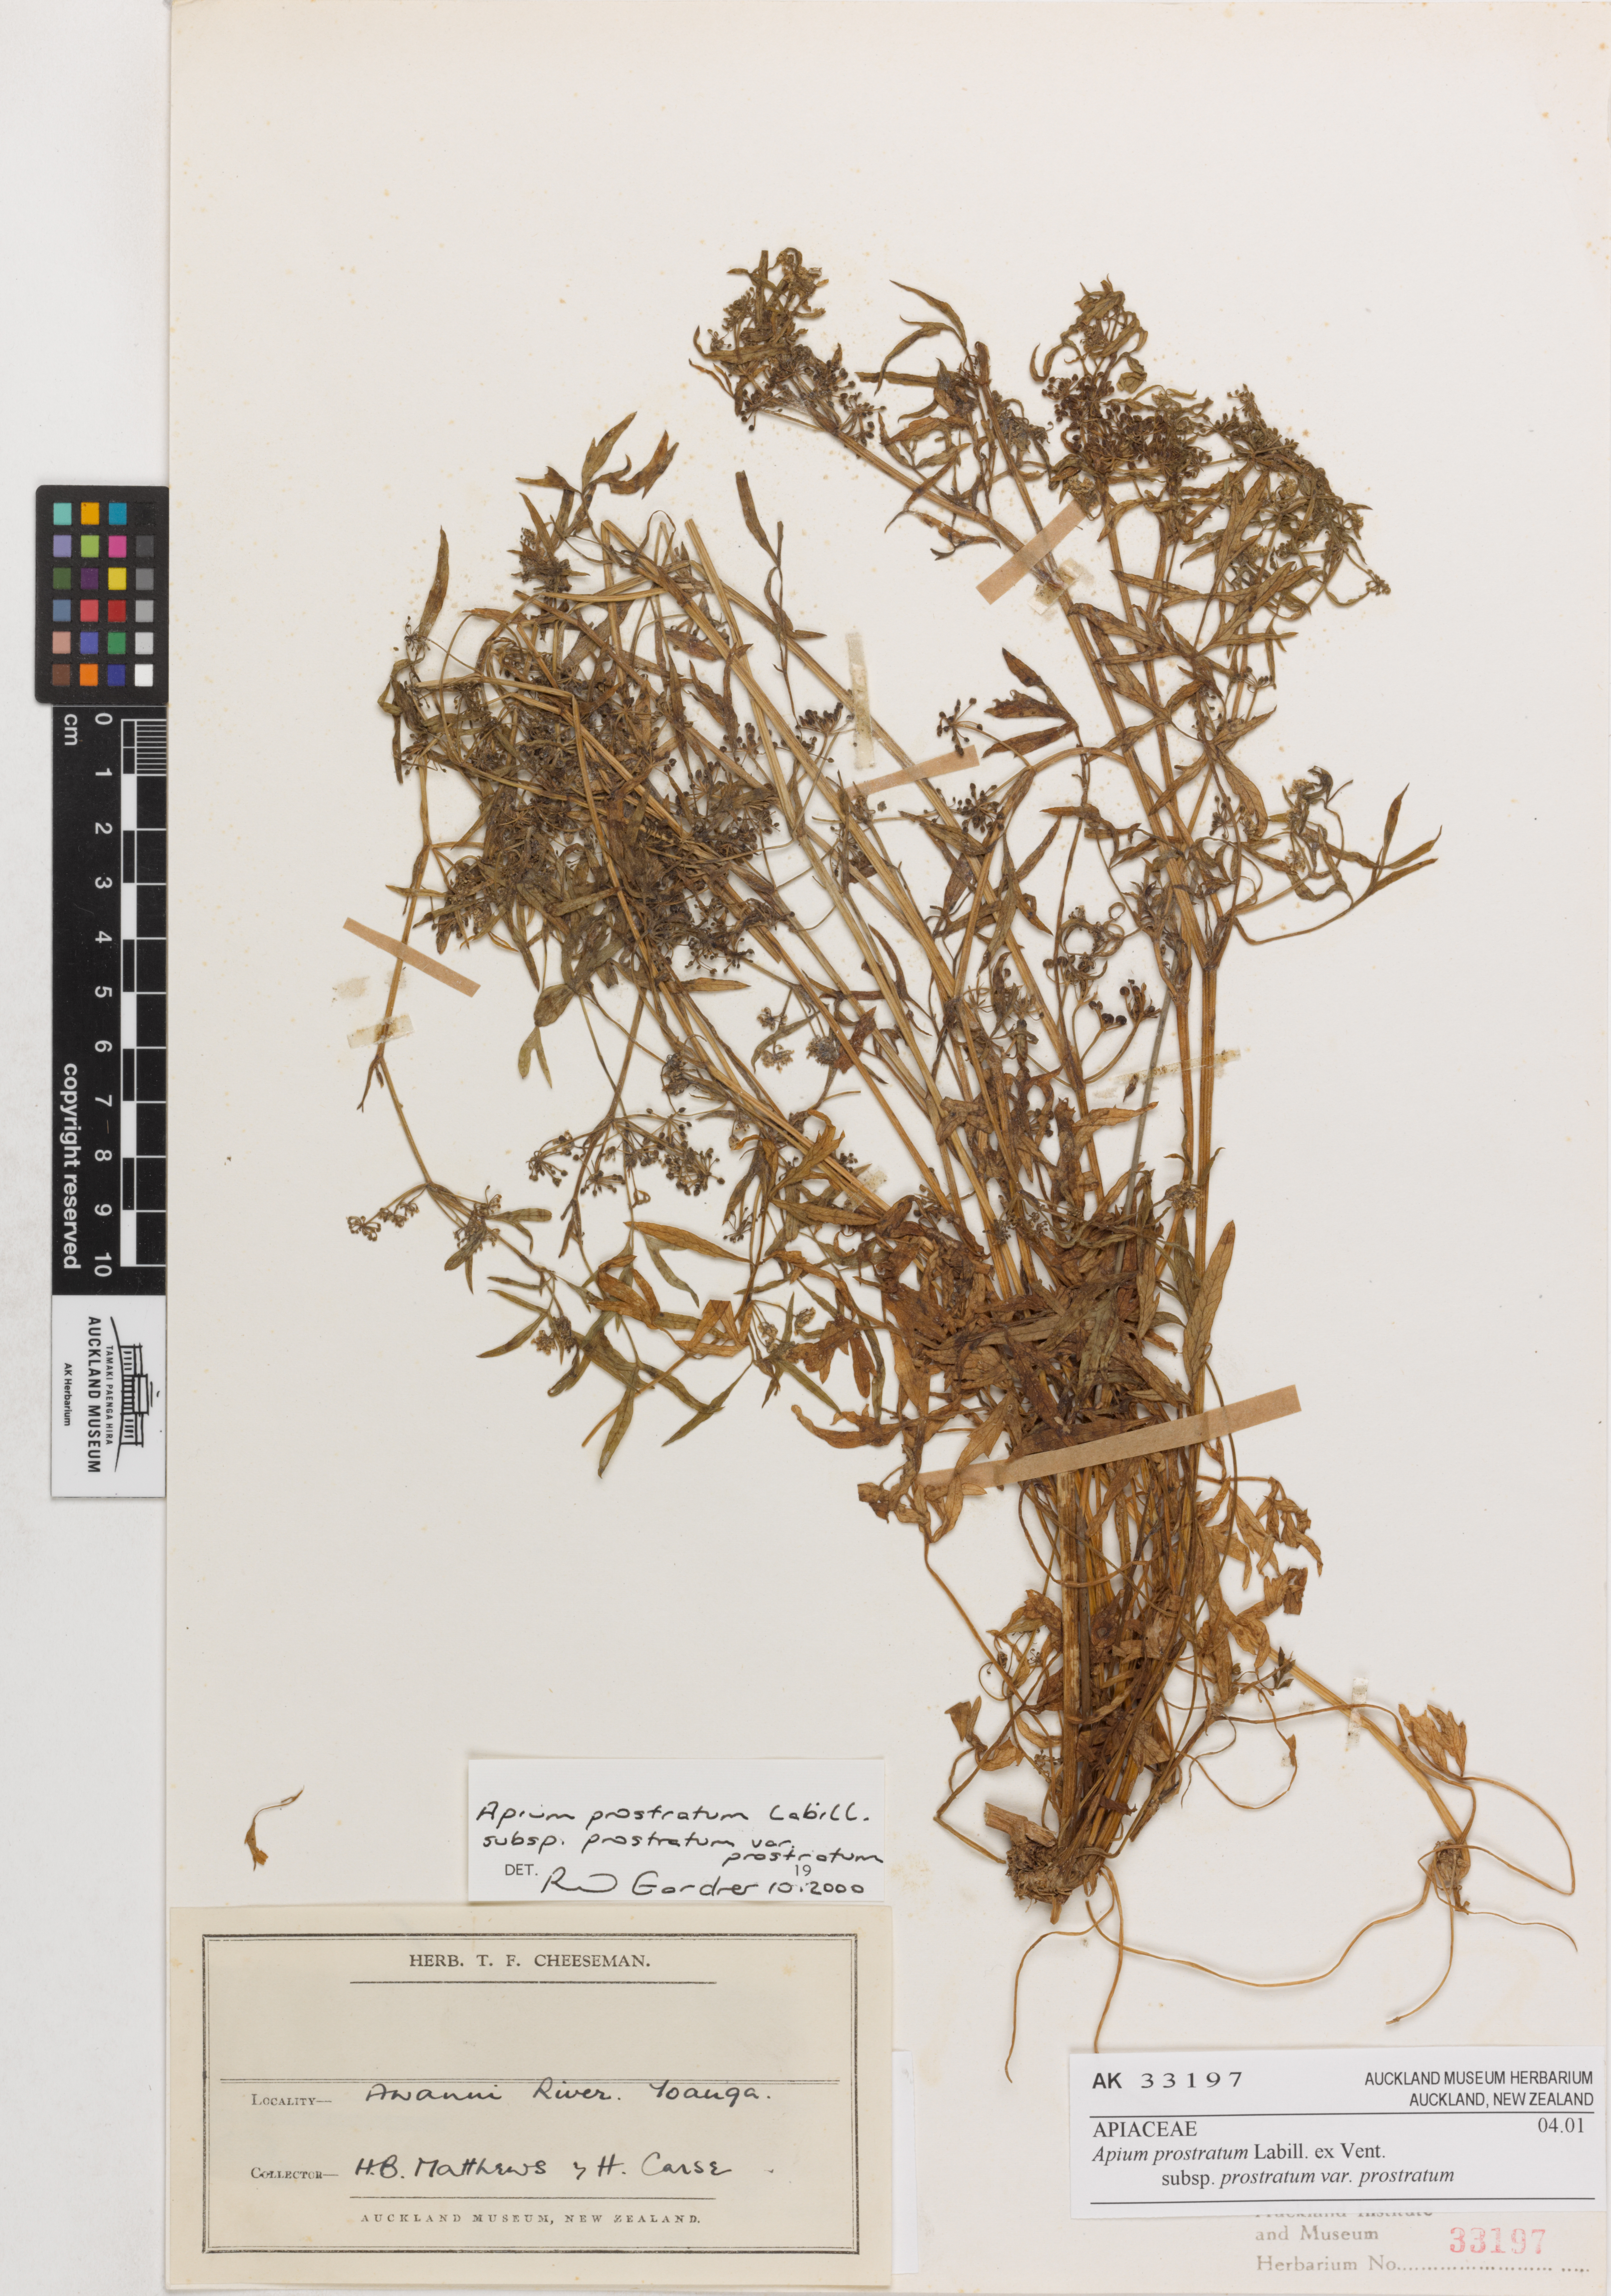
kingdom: Plantae
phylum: Tracheophyta
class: Magnoliopsida
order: Apiales
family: Apiaceae
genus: Apium
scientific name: Apium prostratum
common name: Prostrate marshwort
